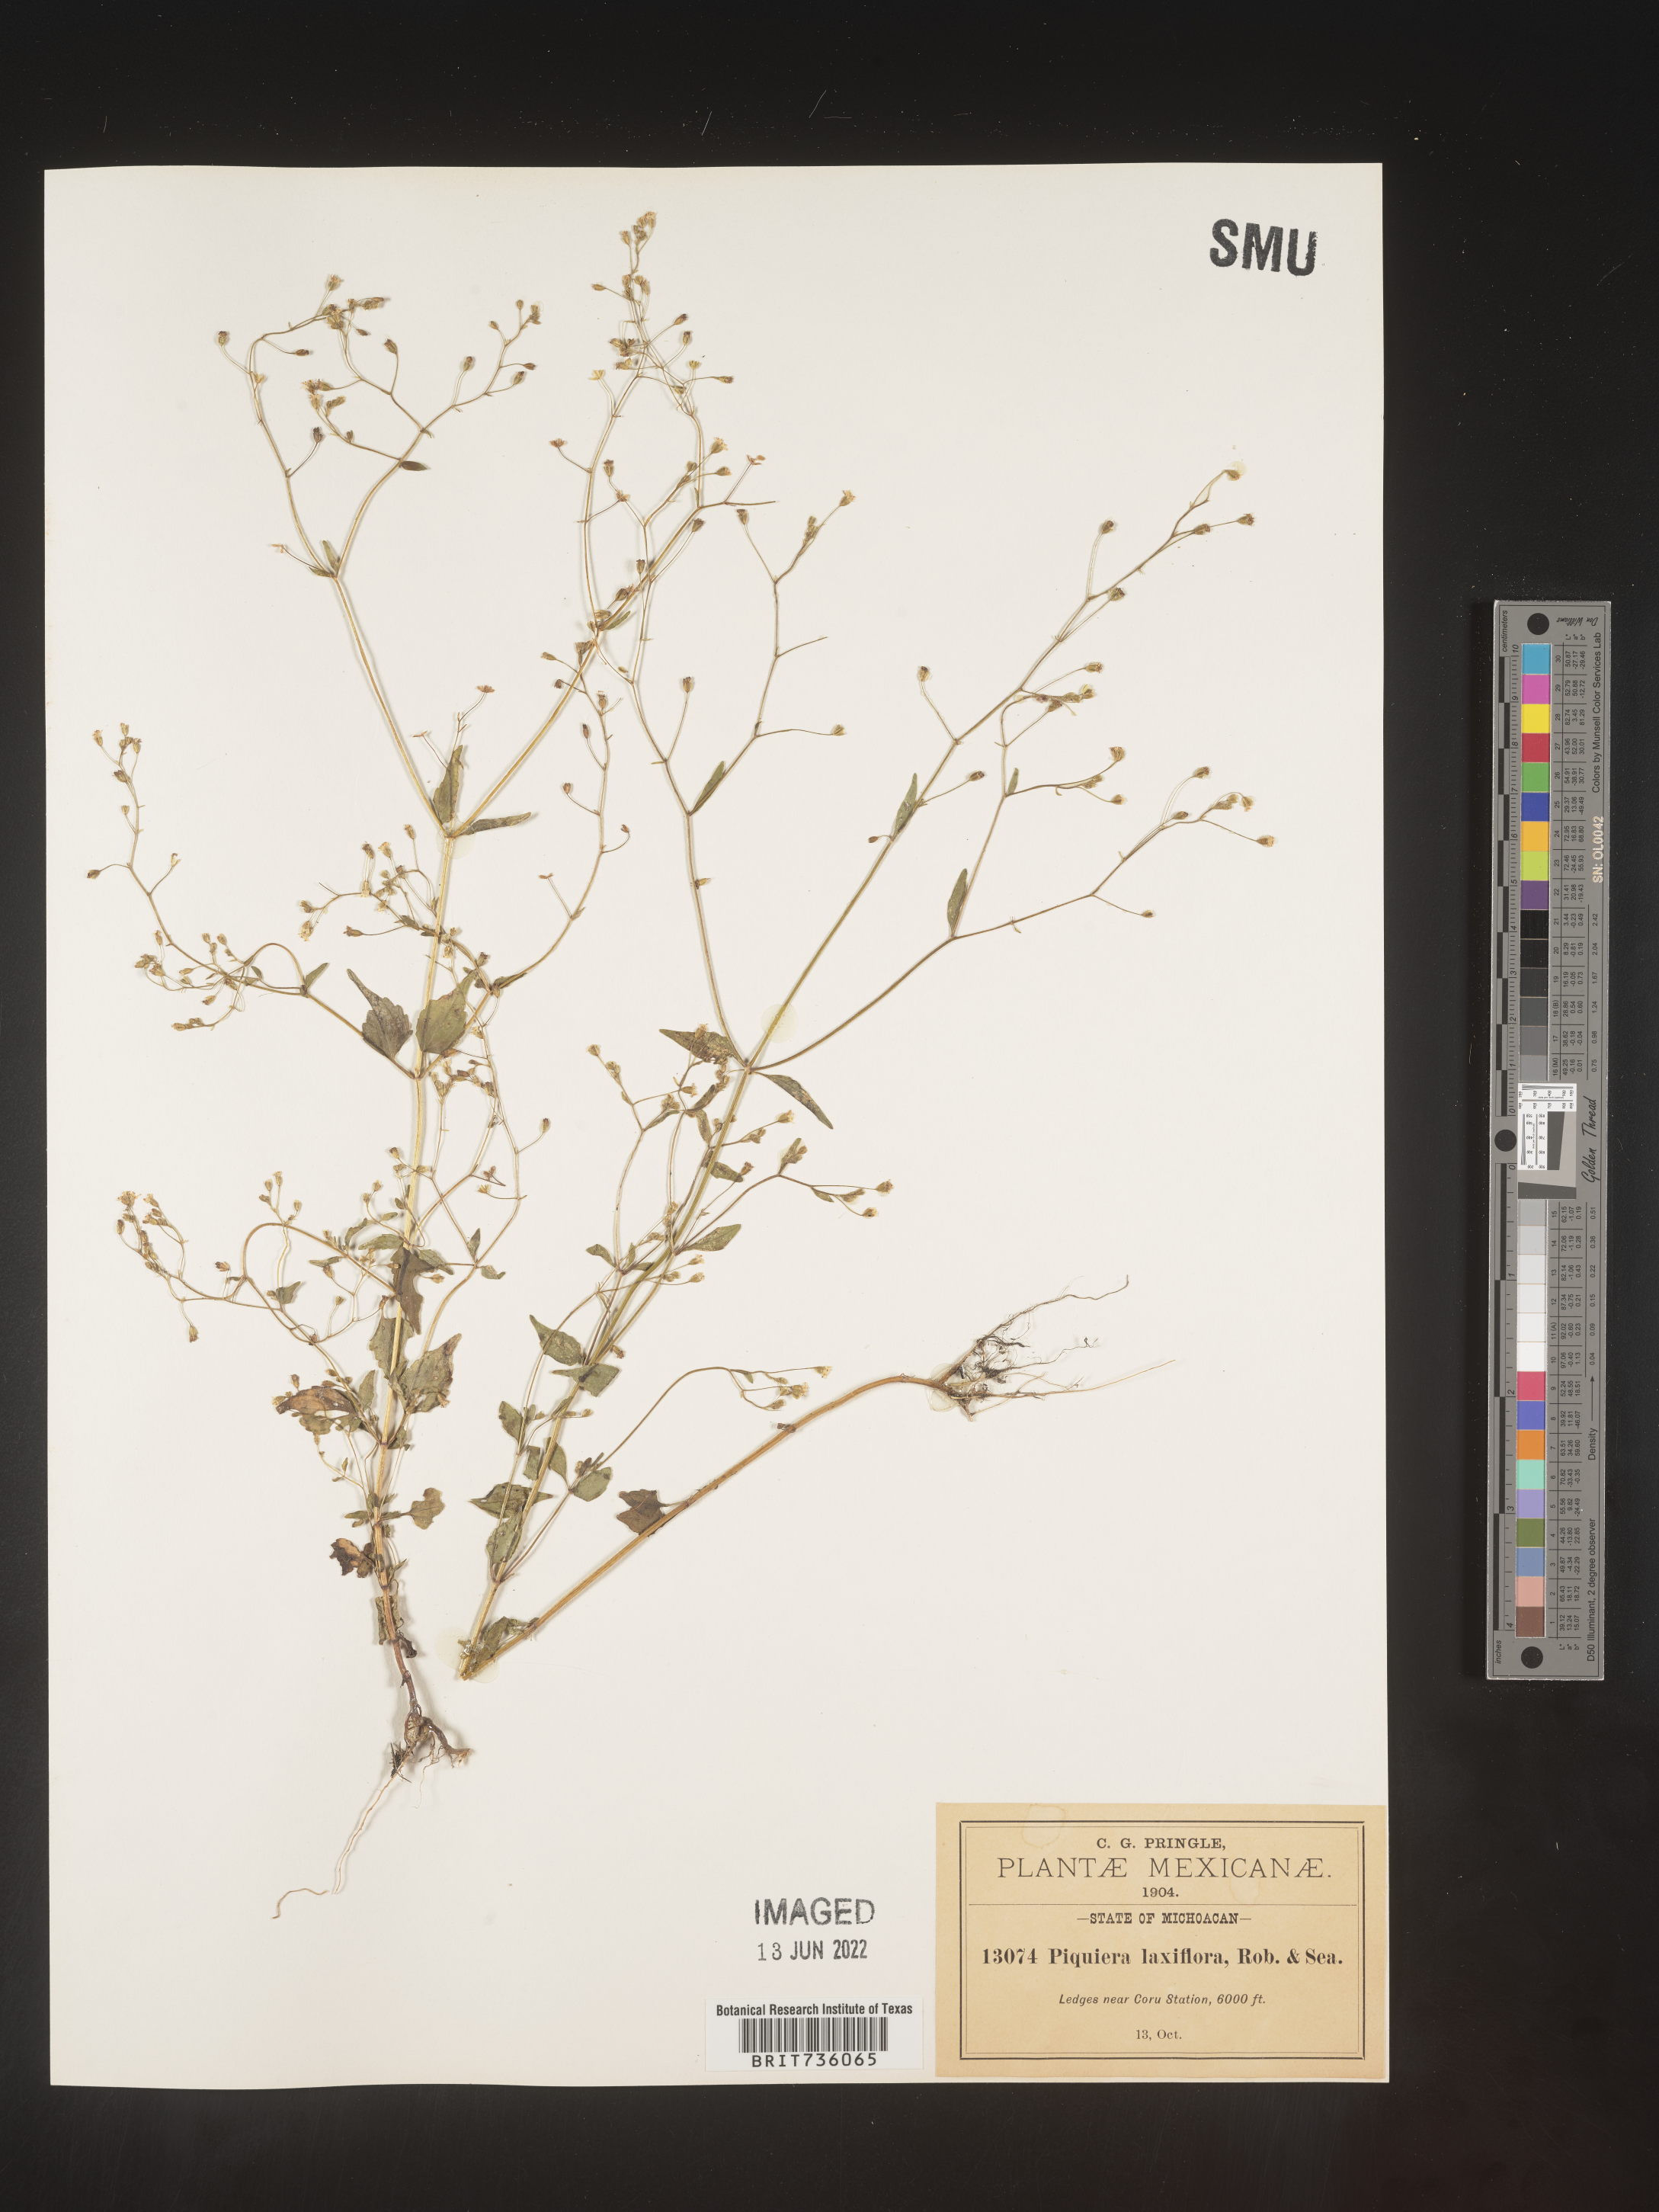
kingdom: Plantae
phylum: Tracheophyta
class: Magnoliopsida
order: Asterales
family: Asteraceae
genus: Piqueria
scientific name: Piqueria
